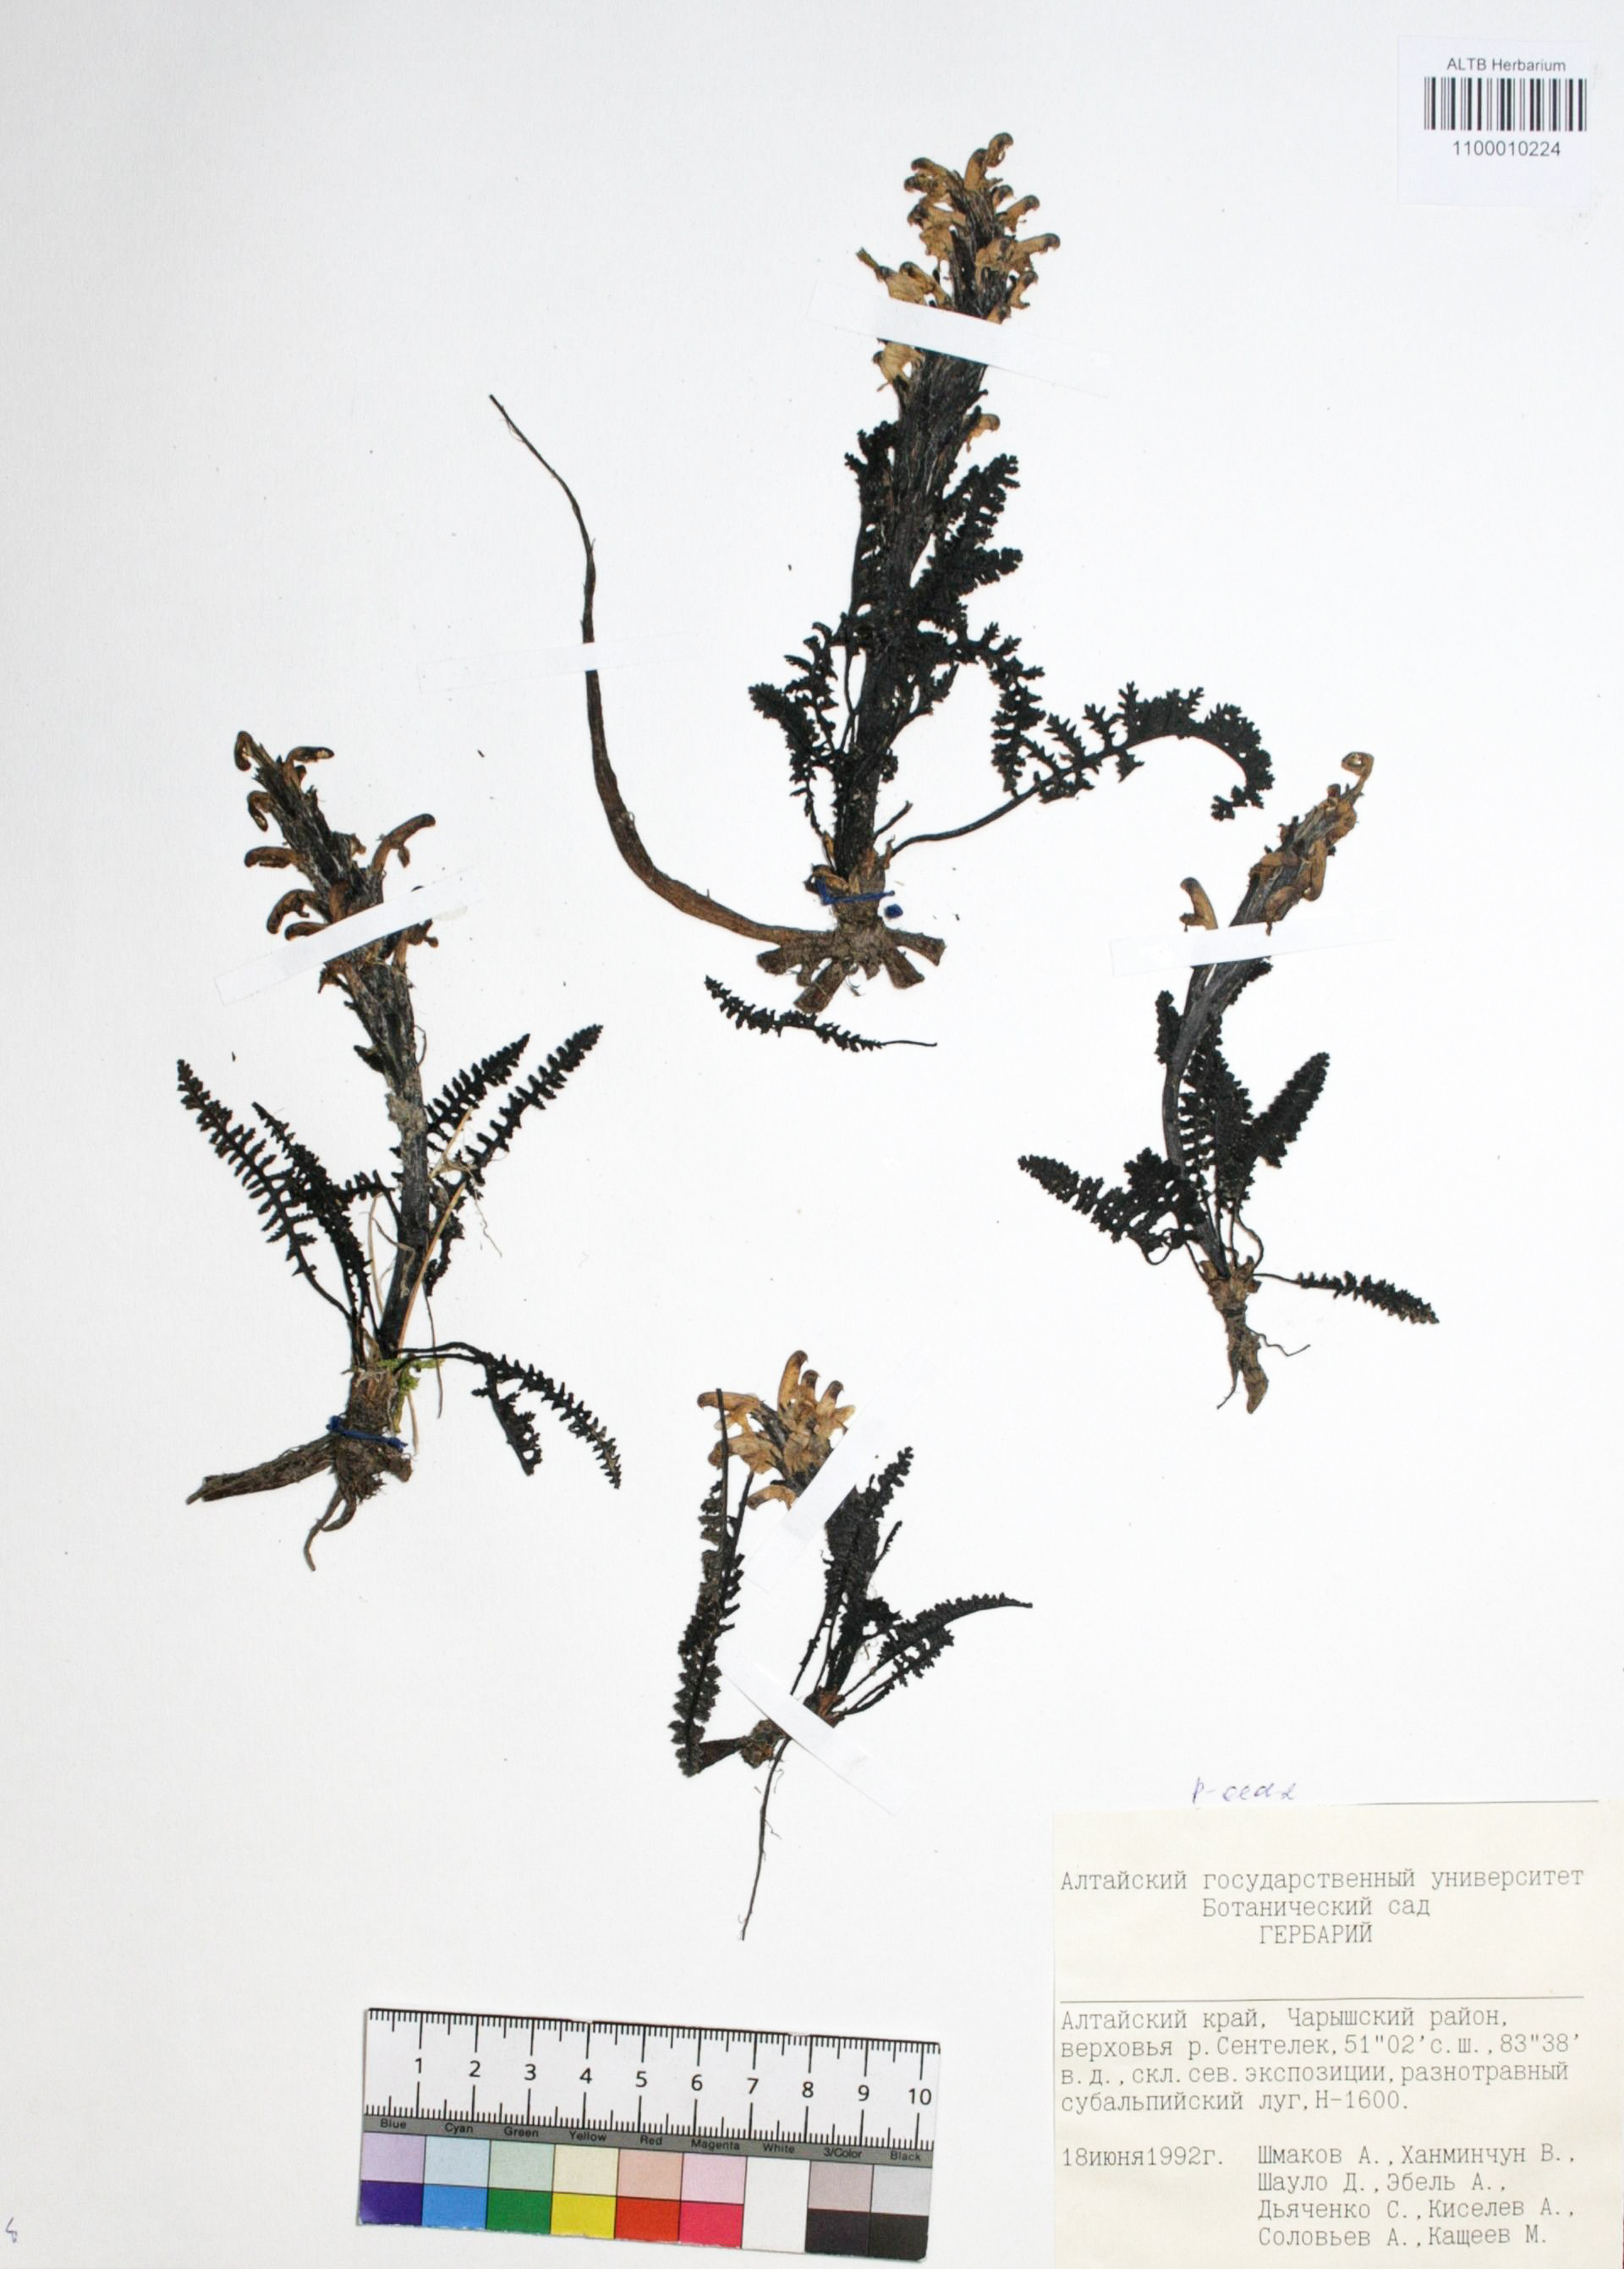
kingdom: Plantae
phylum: Tracheophyta
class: Magnoliopsida
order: Lamiales
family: Orobanchaceae
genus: Pedicularis
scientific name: Pedicularis anthemifolia
